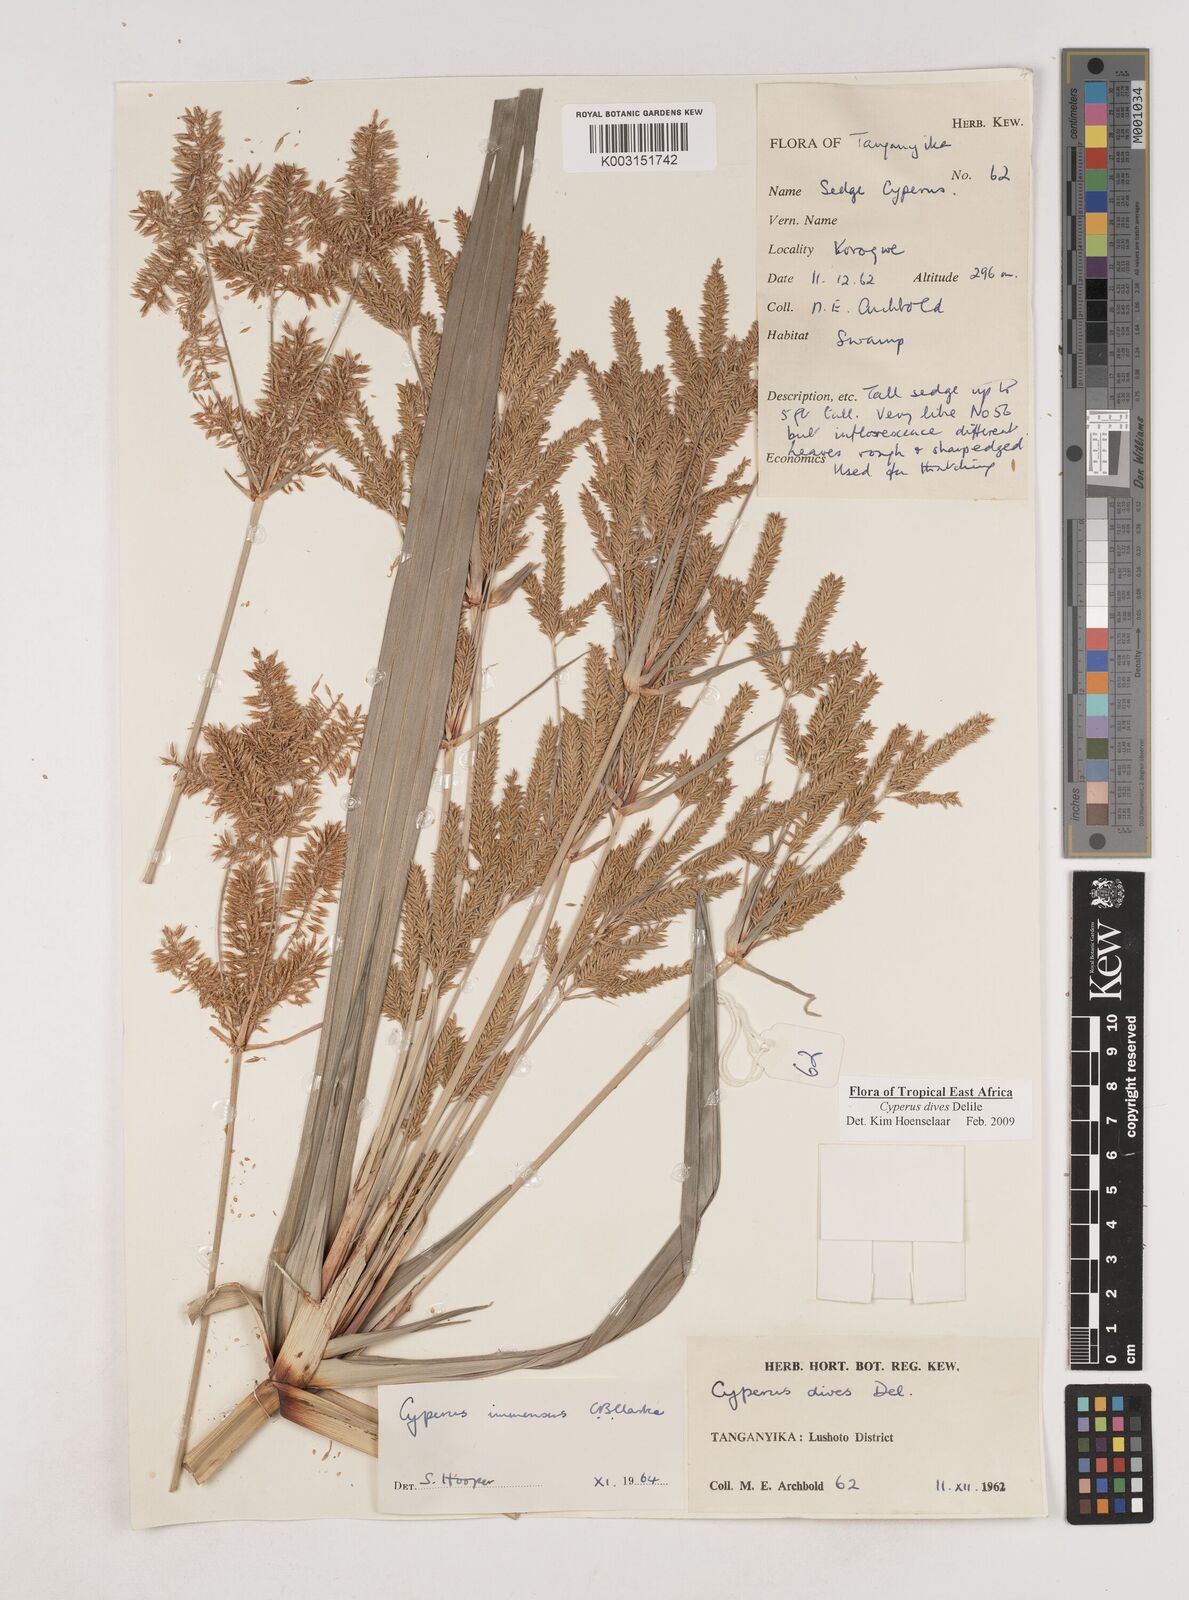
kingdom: Plantae
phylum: Tracheophyta
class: Liliopsida
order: Poales
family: Cyperaceae
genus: Cyperus
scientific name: Cyperus dives
